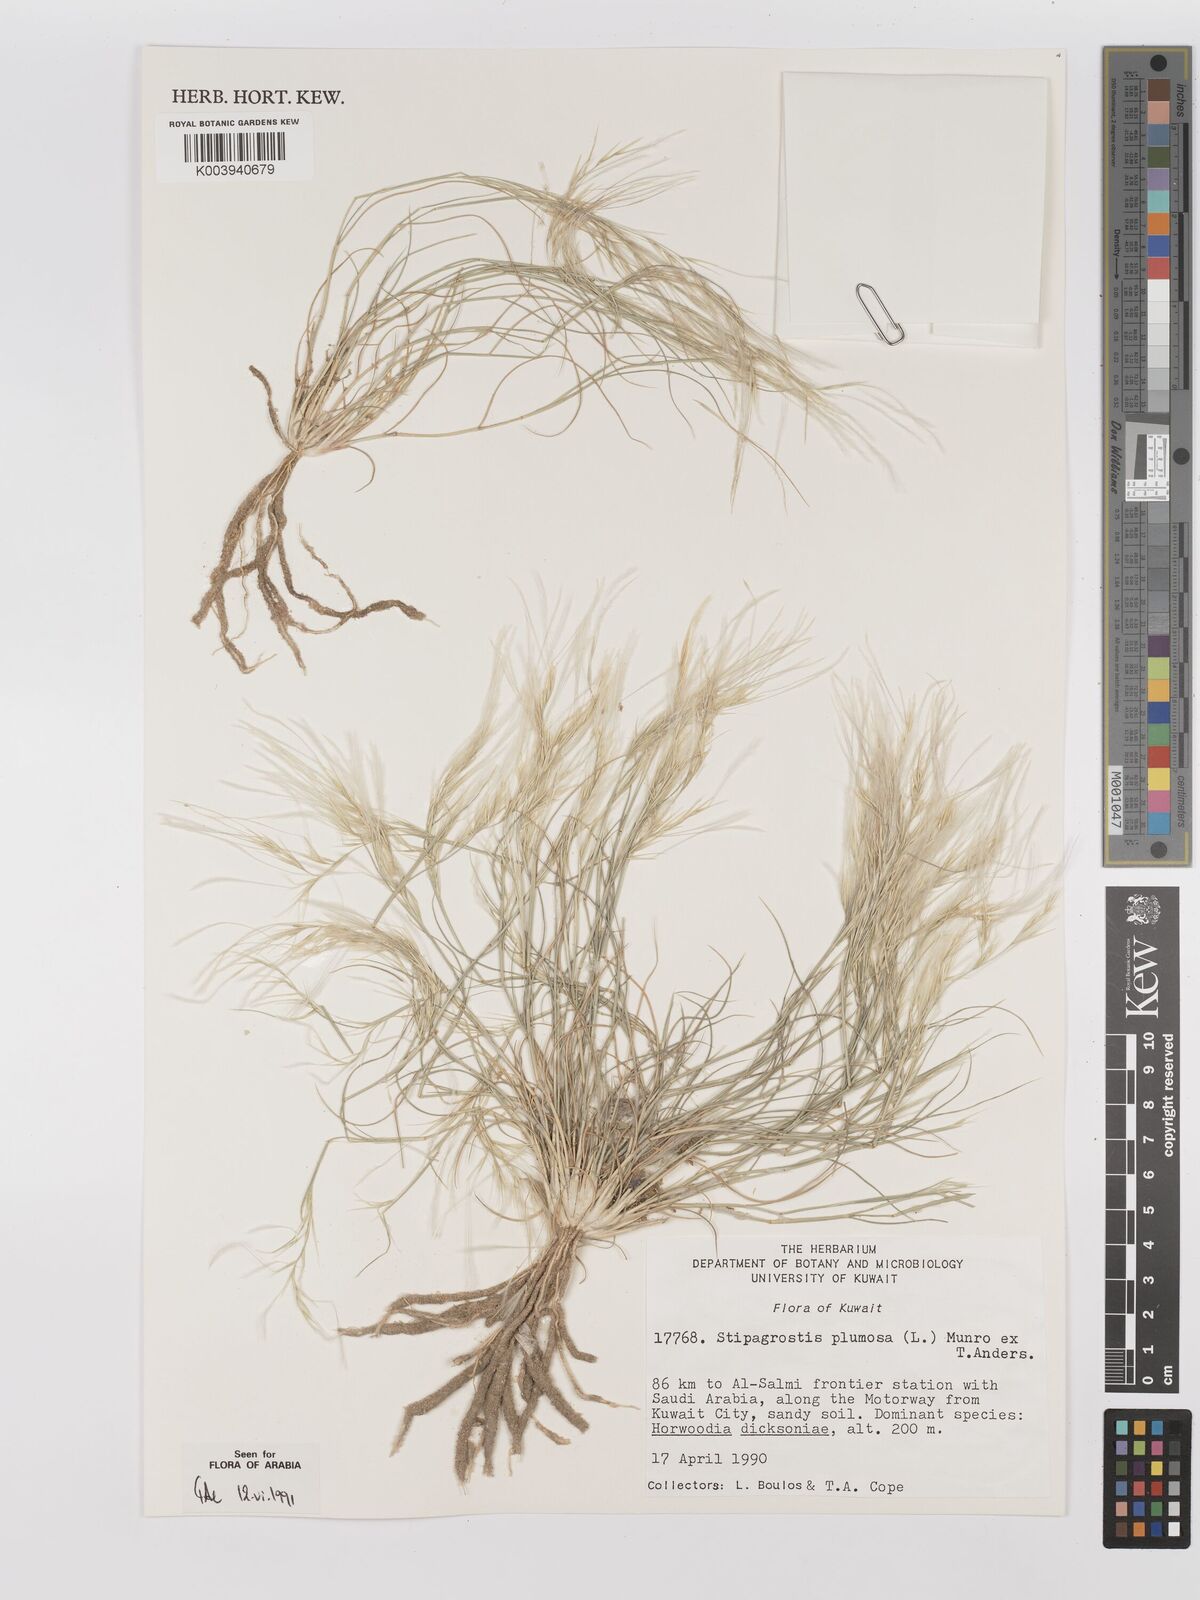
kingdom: Plantae
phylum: Tracheophyta
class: Liliopsida
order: Poales
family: Poaceae
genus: Stipagrostis
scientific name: Stipagrostis plumosa
